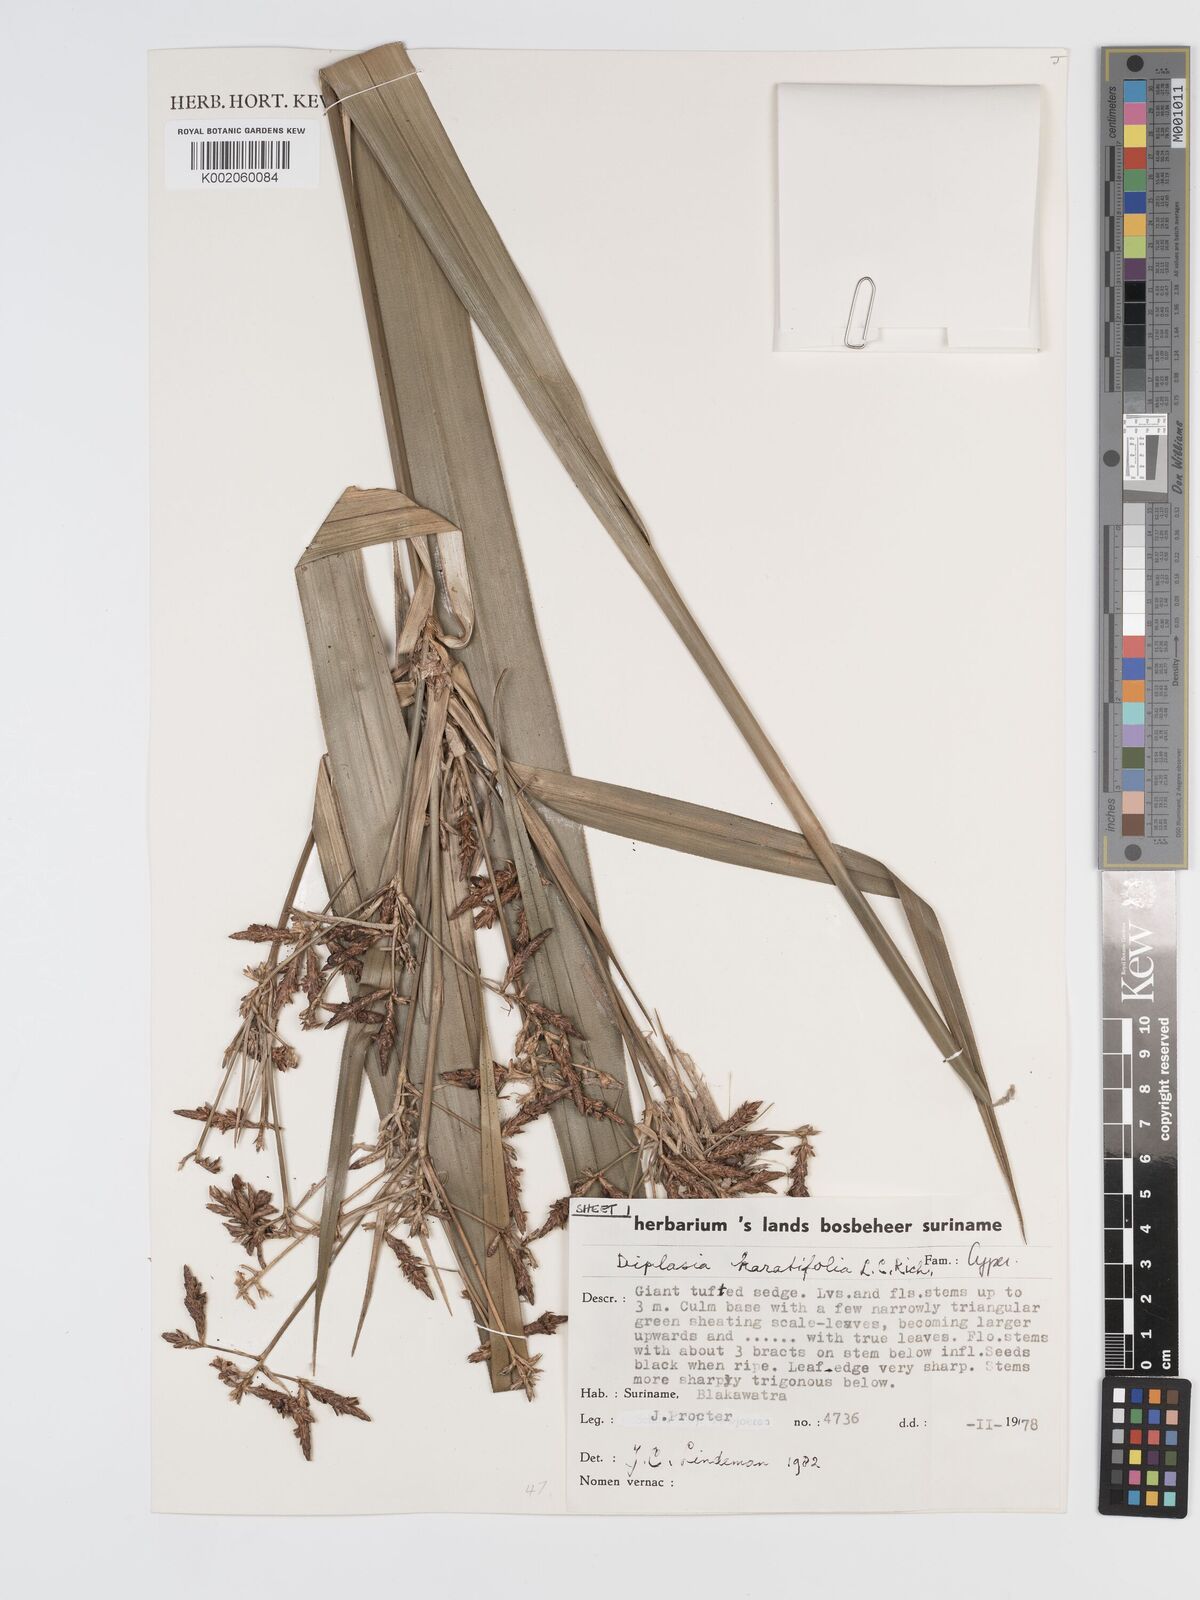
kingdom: Plantae
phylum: Tracheophyta
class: Liliopsida
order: Poales
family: Cyperaceae
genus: Diplasia
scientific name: Diplasia karatifolia
